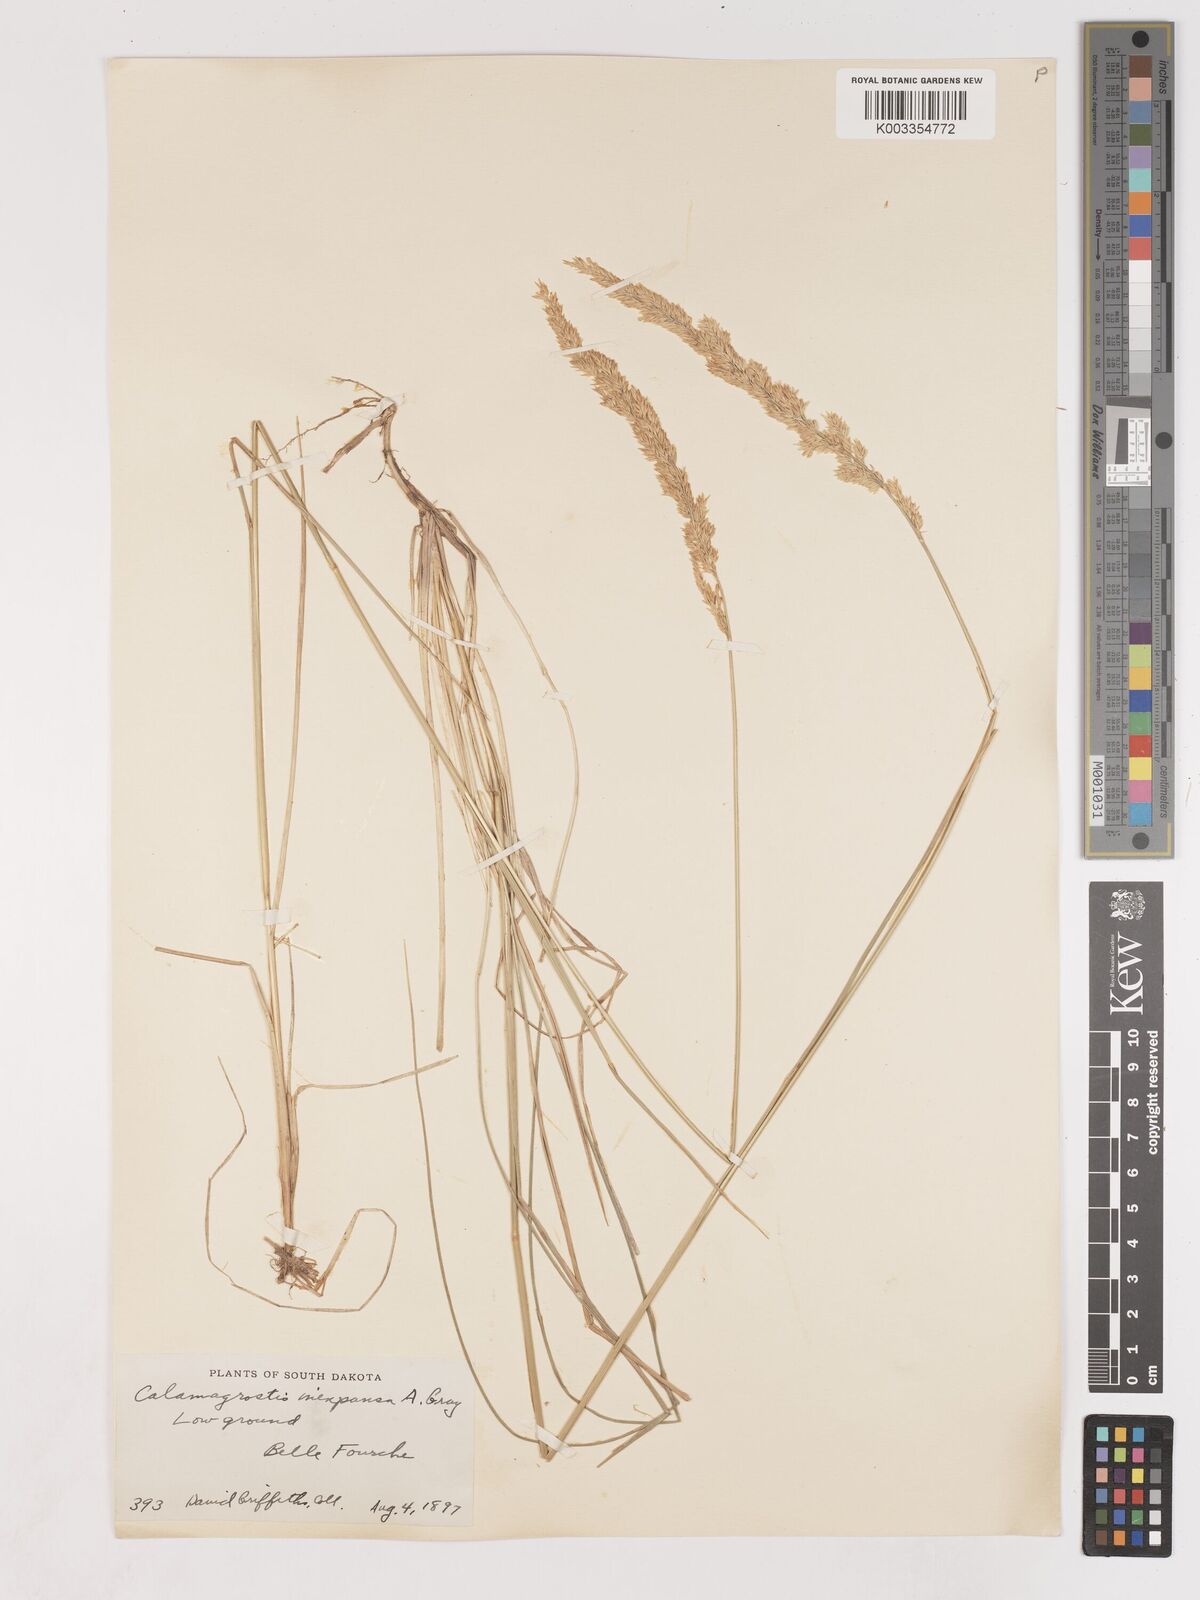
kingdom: Plantae
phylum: Tracheophyta
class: Liliopsida
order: Poales
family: Poaceae
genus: Cinnagrostis
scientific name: Cinnagrostis recta
